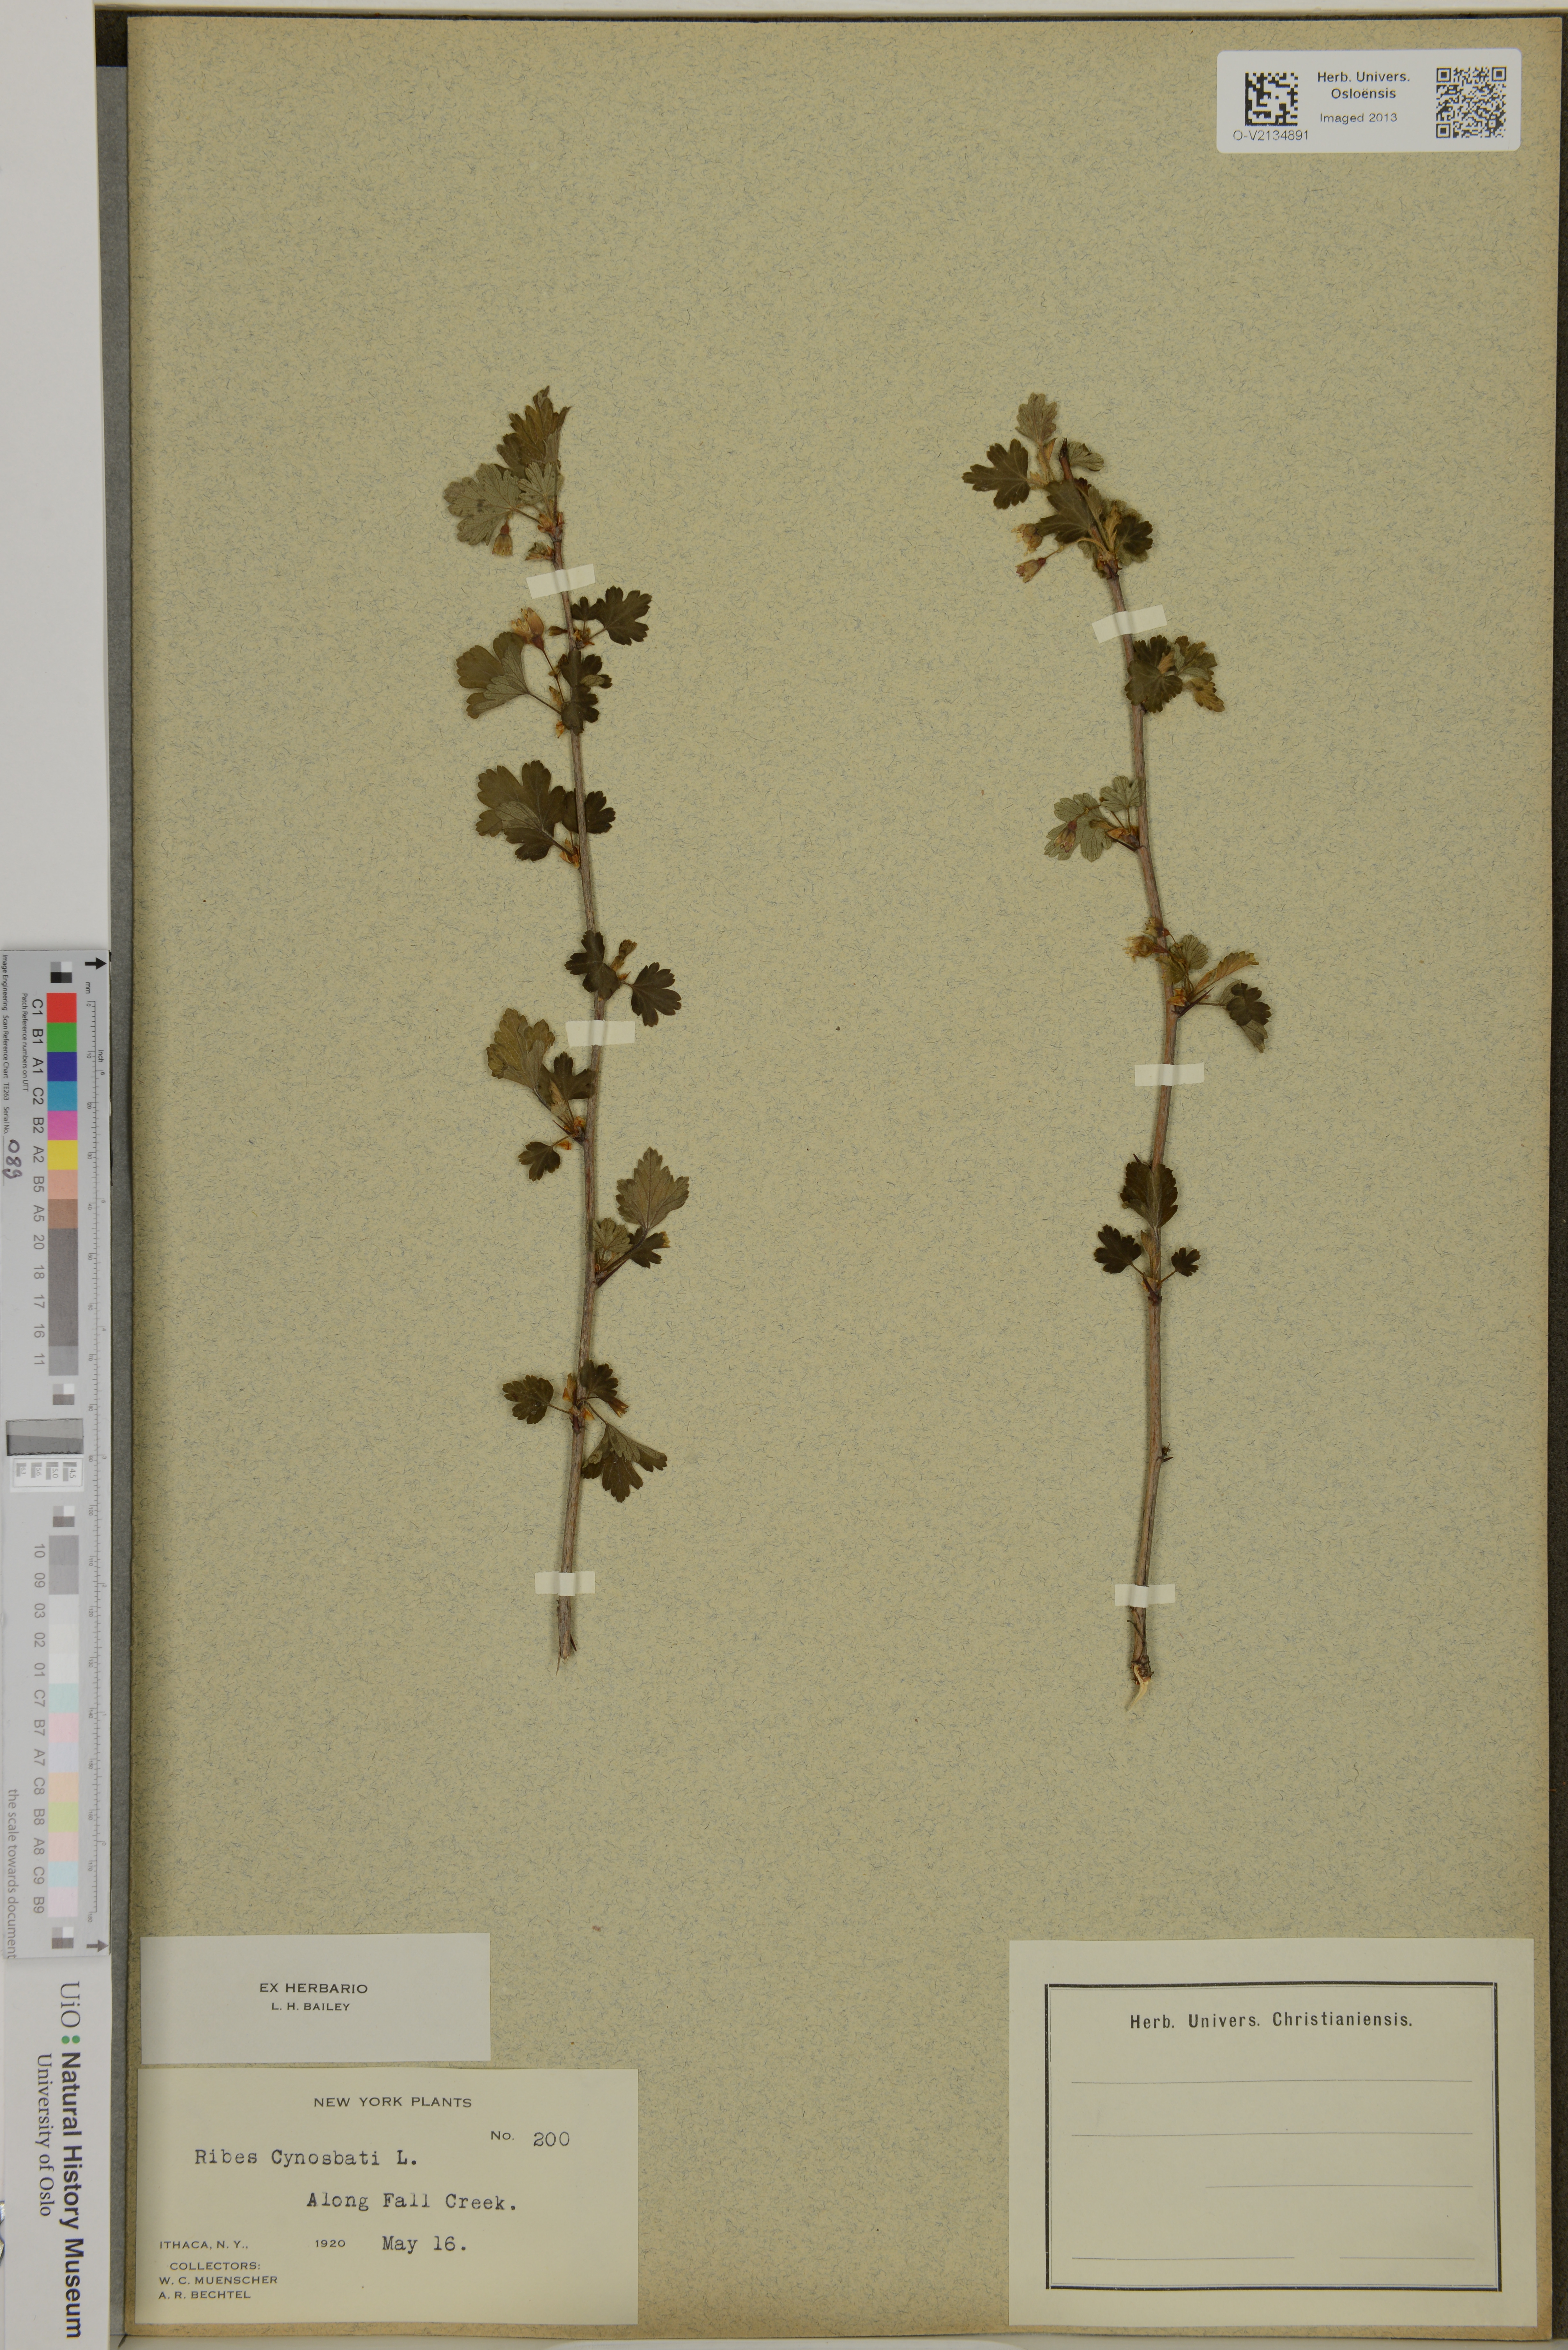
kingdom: Plantae
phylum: Tracheophyta
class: Magnoliopsida
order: Saxifragales
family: Grossulariaceae
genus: Ribes
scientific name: Ribes cynosbati
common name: American gooseberry
